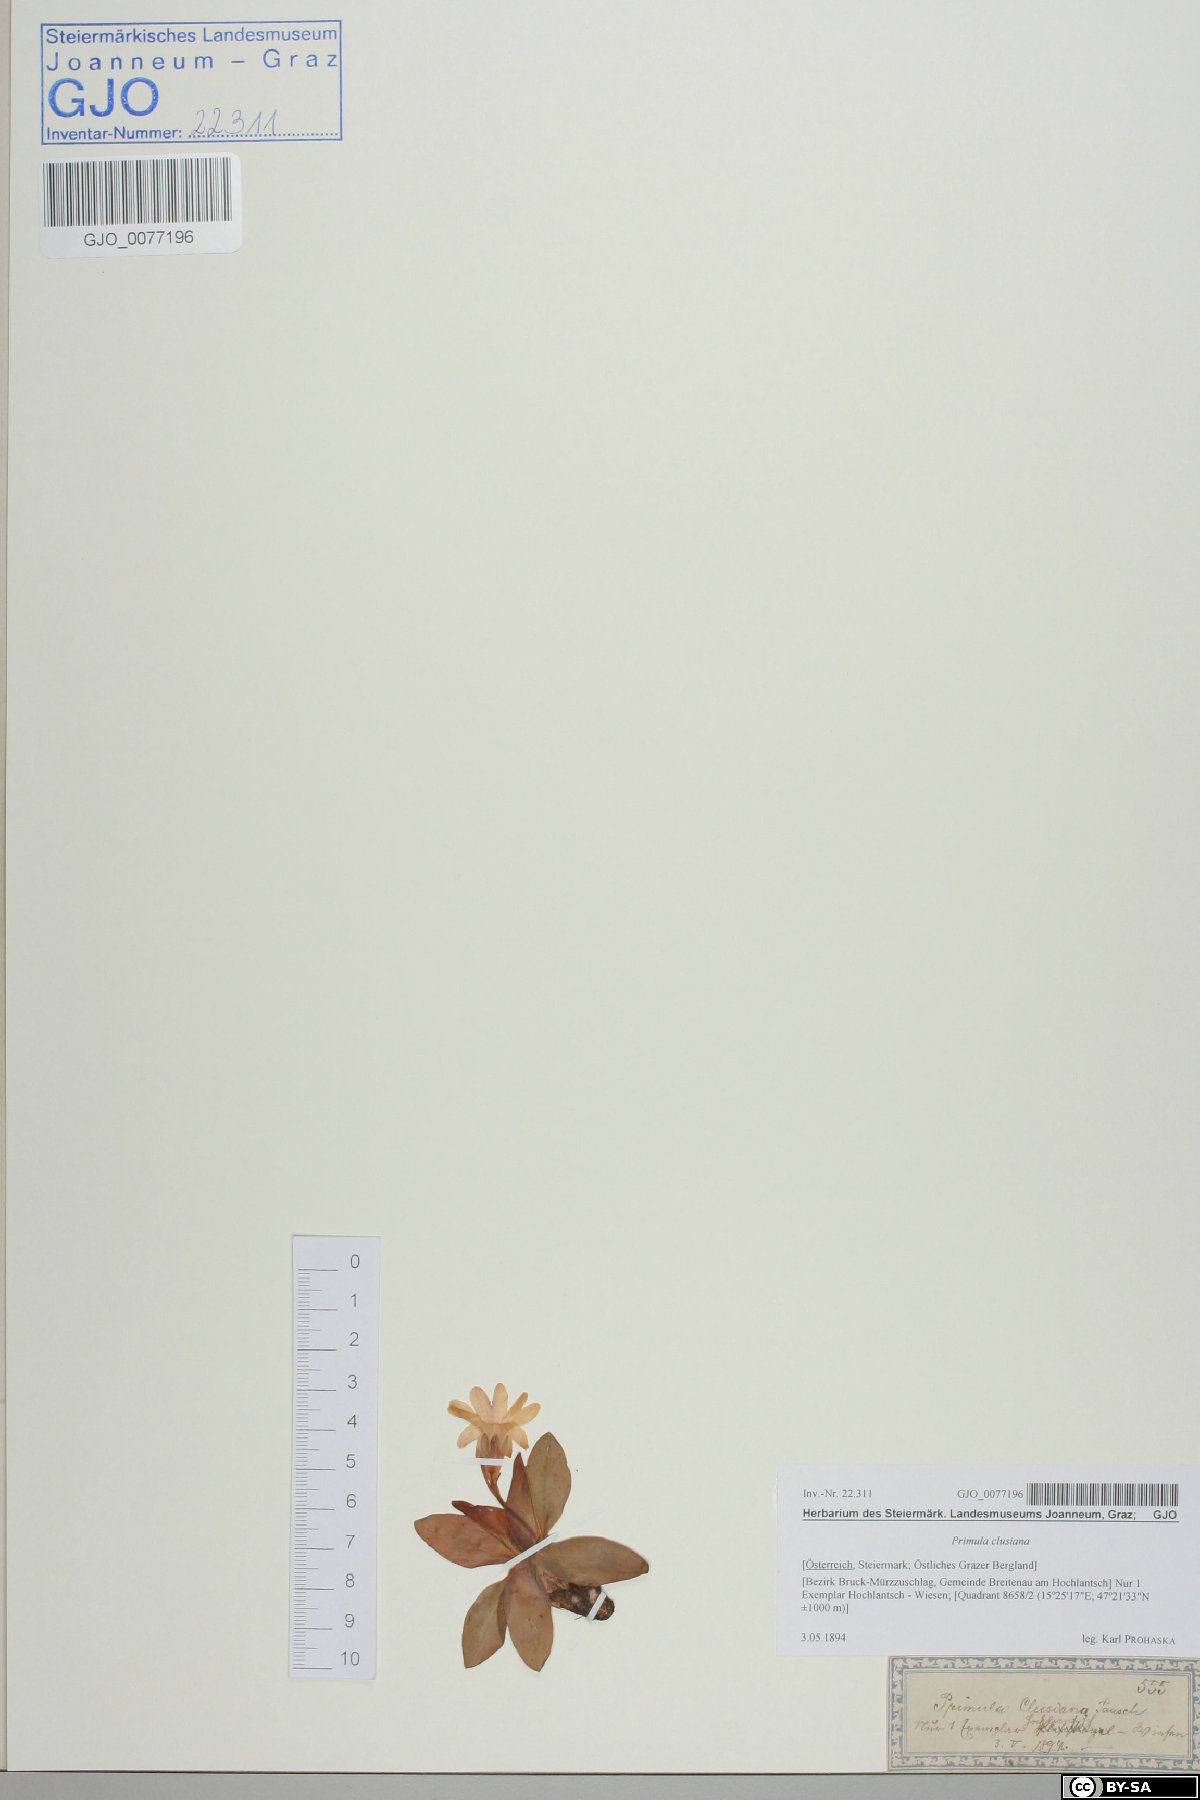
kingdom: Plantae
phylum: Tracheophyta
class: Magnoliopsida
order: Ericales
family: Primulaceae
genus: Primula
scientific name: Primula clusiana
